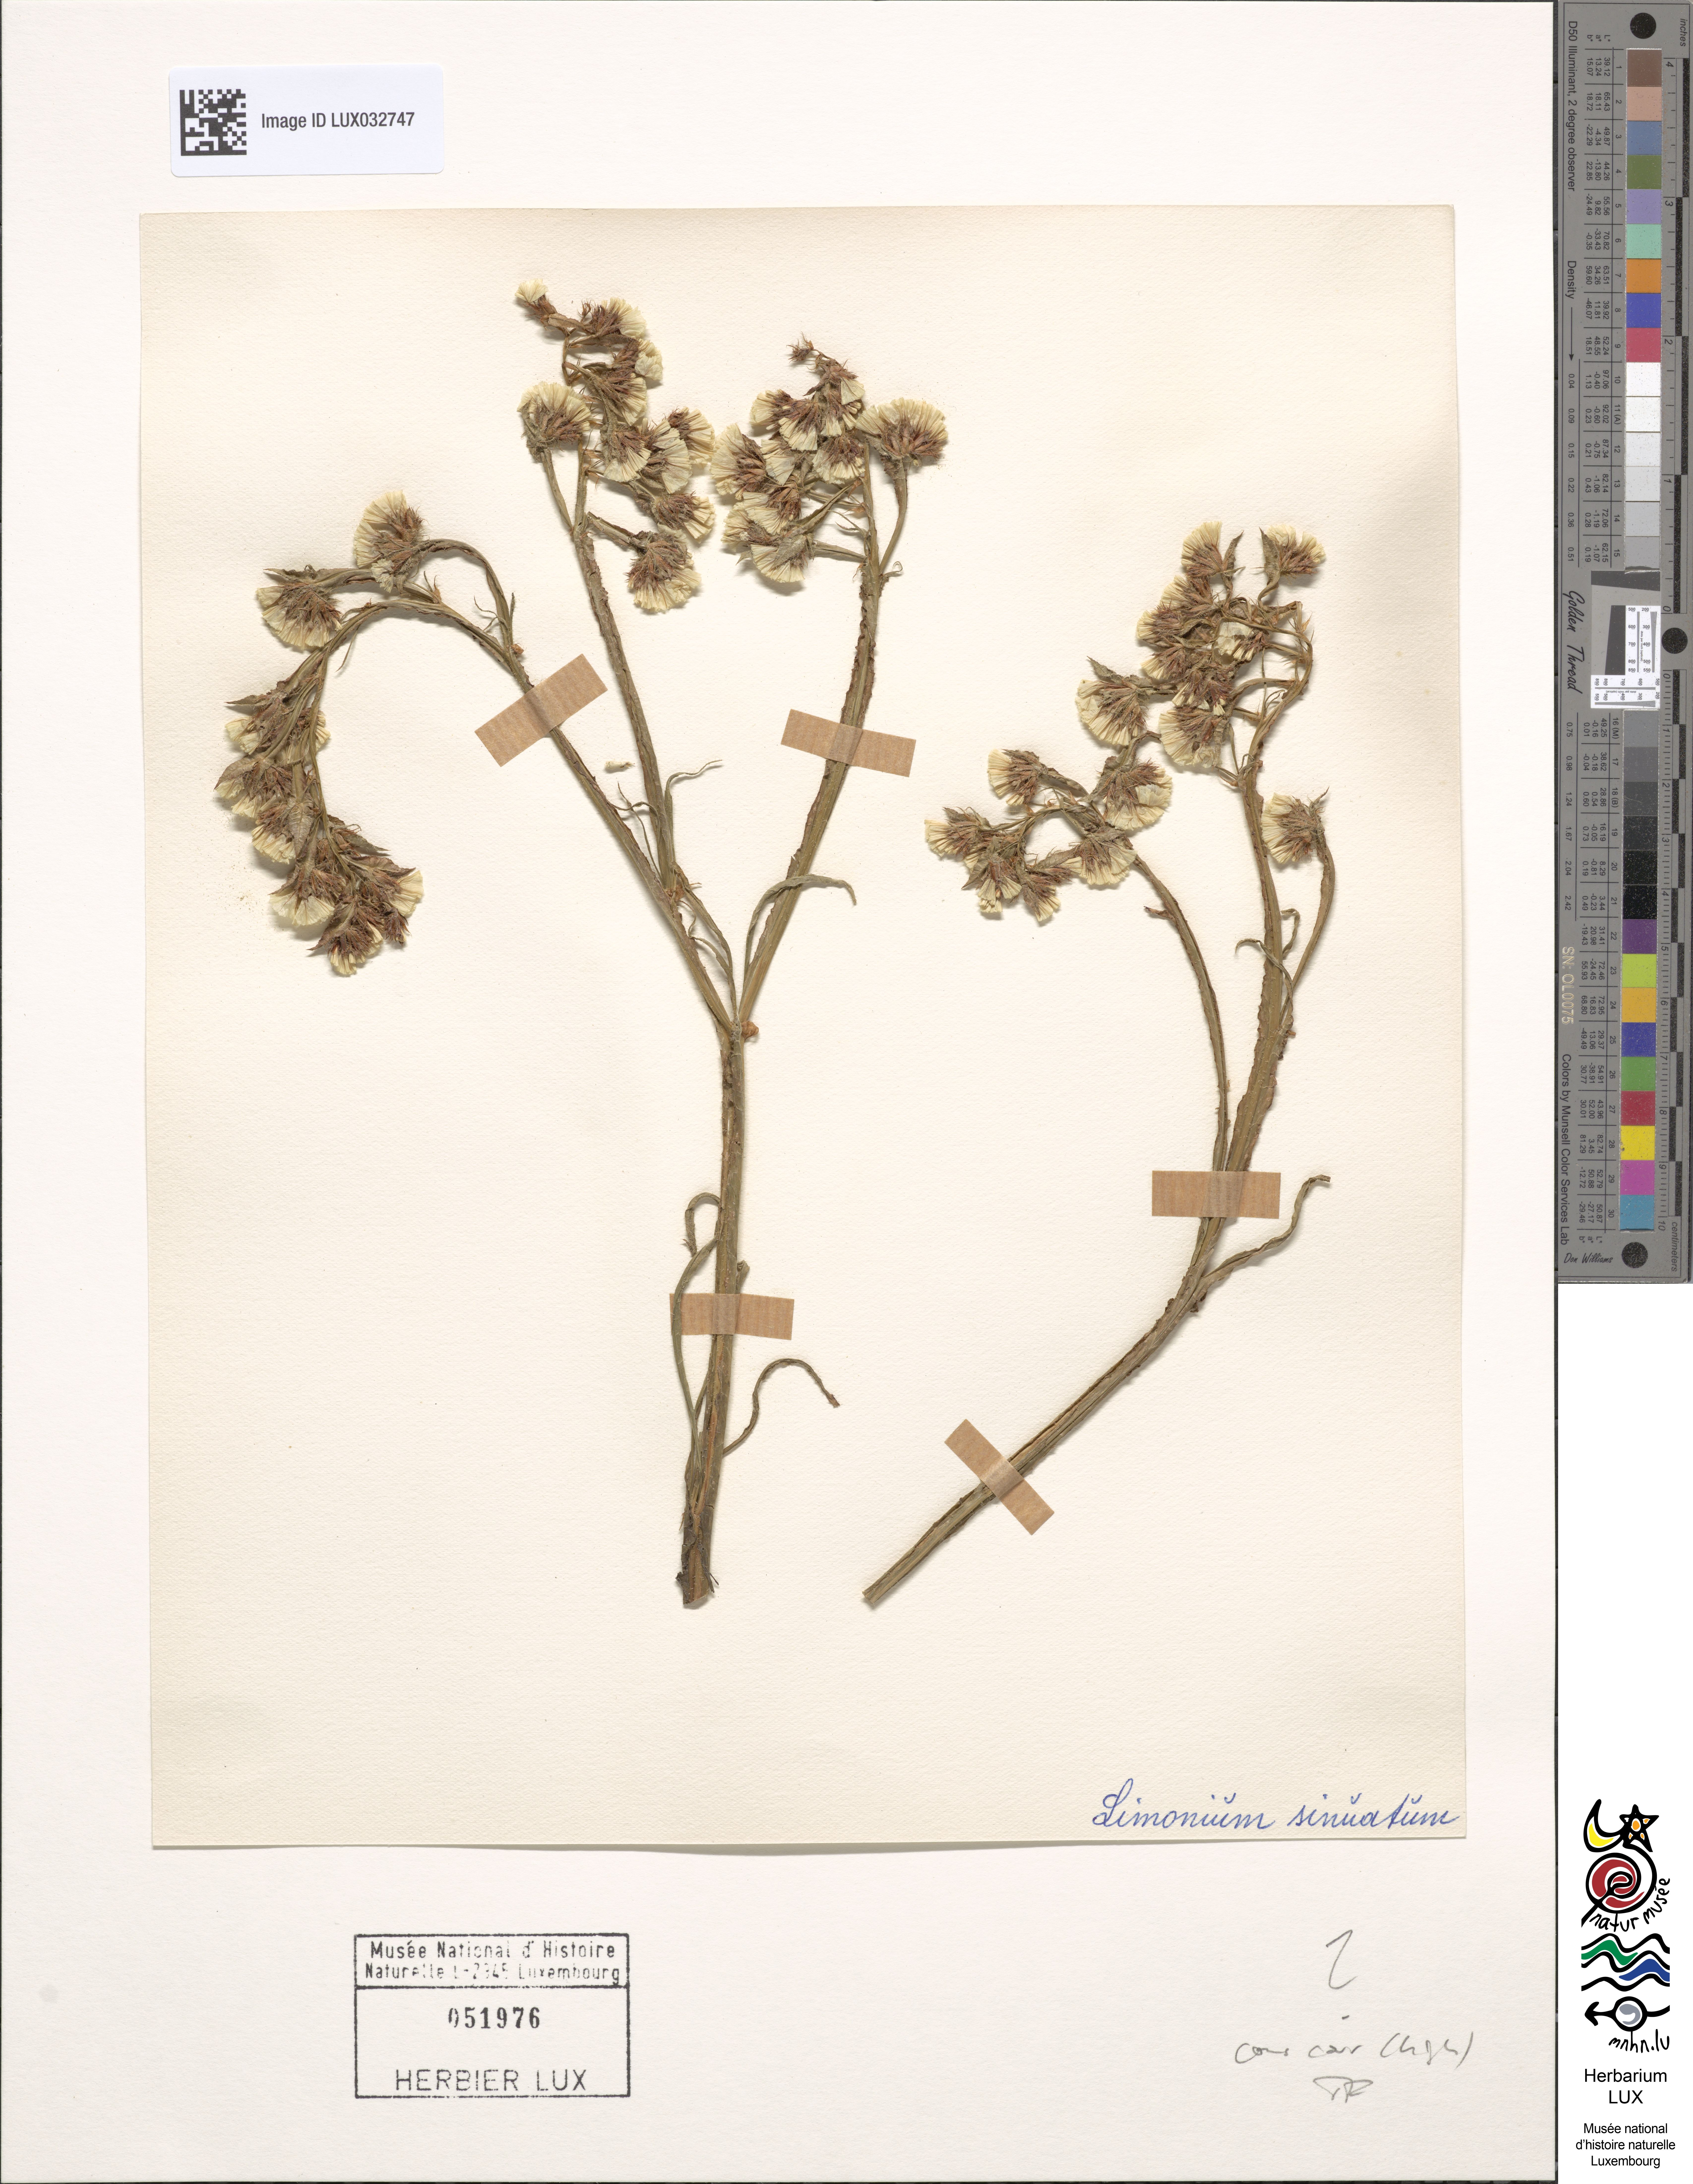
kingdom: Plantae
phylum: Tracheophyta
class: Magnoliopsida
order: Caryophyllales
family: Plumbaginaceae
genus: Limonium
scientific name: Limonium sinuatum
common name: Statice
